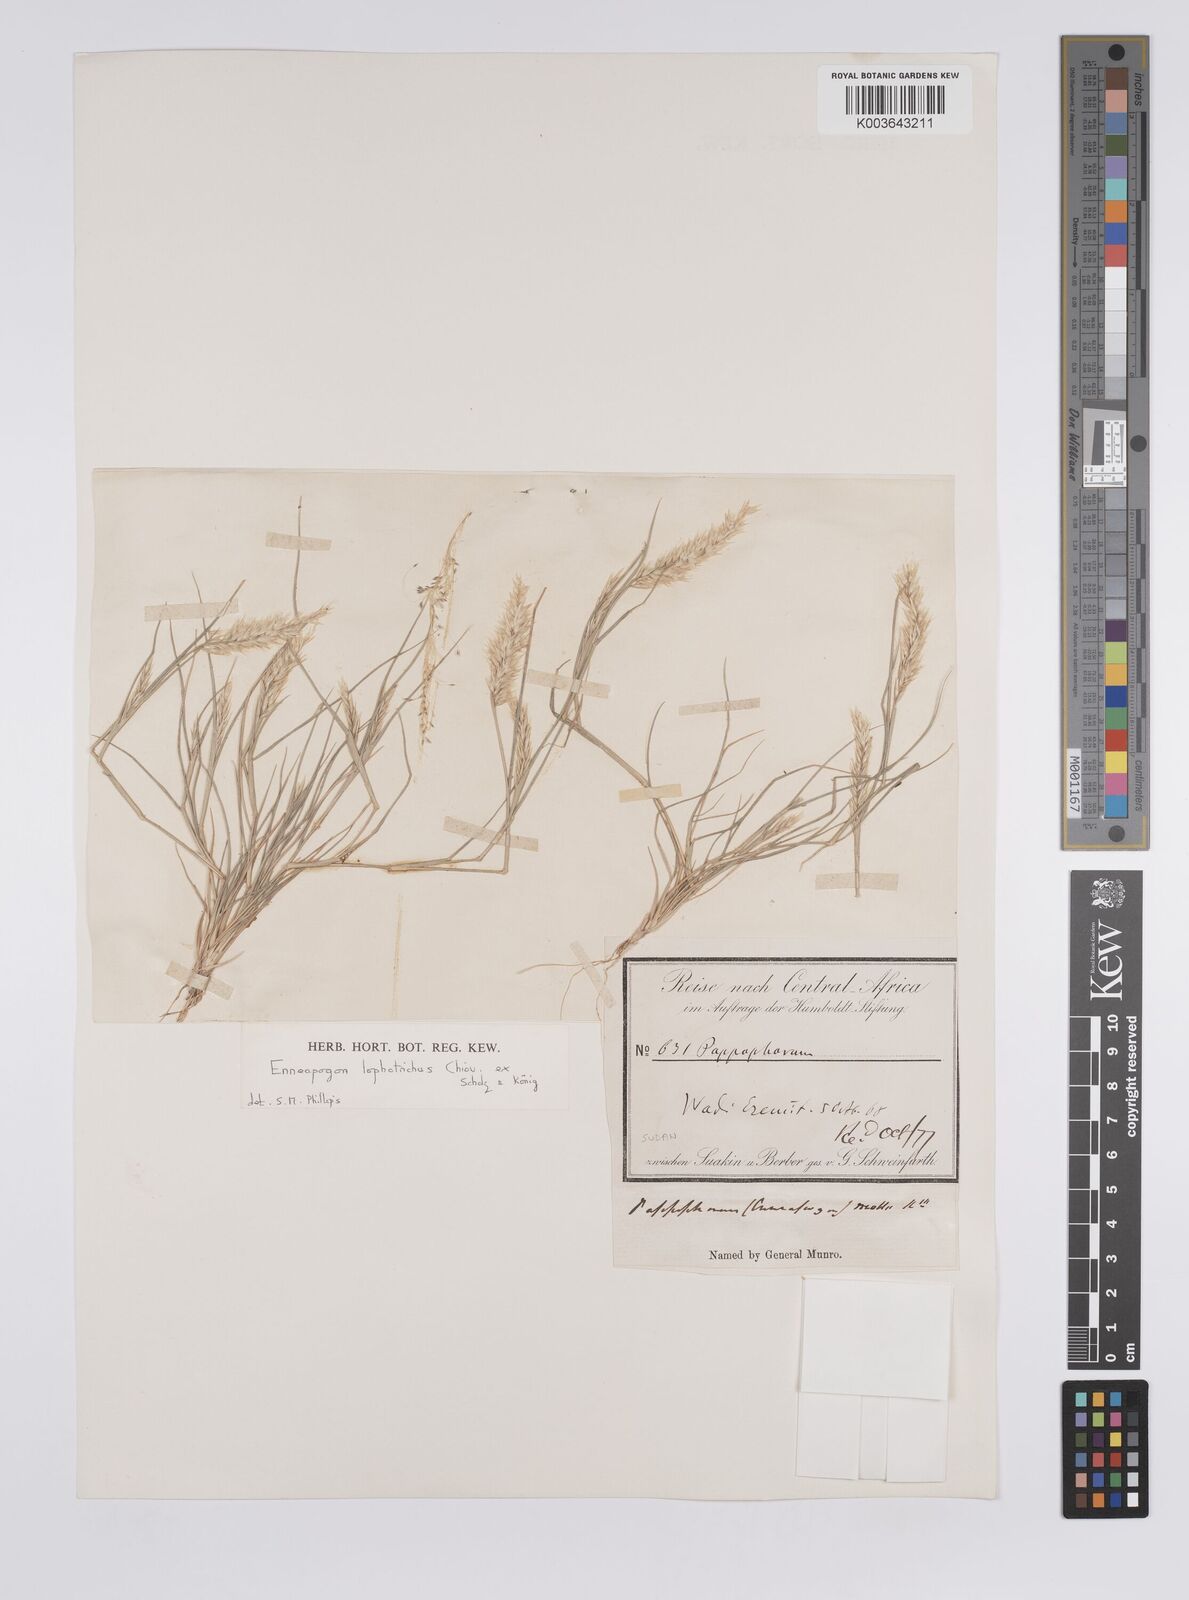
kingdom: Plantae
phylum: Tracheophyta
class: Liliopsida
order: Poales
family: Poaceae
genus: Enneapogon
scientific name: Enneapogon lophotrichus
